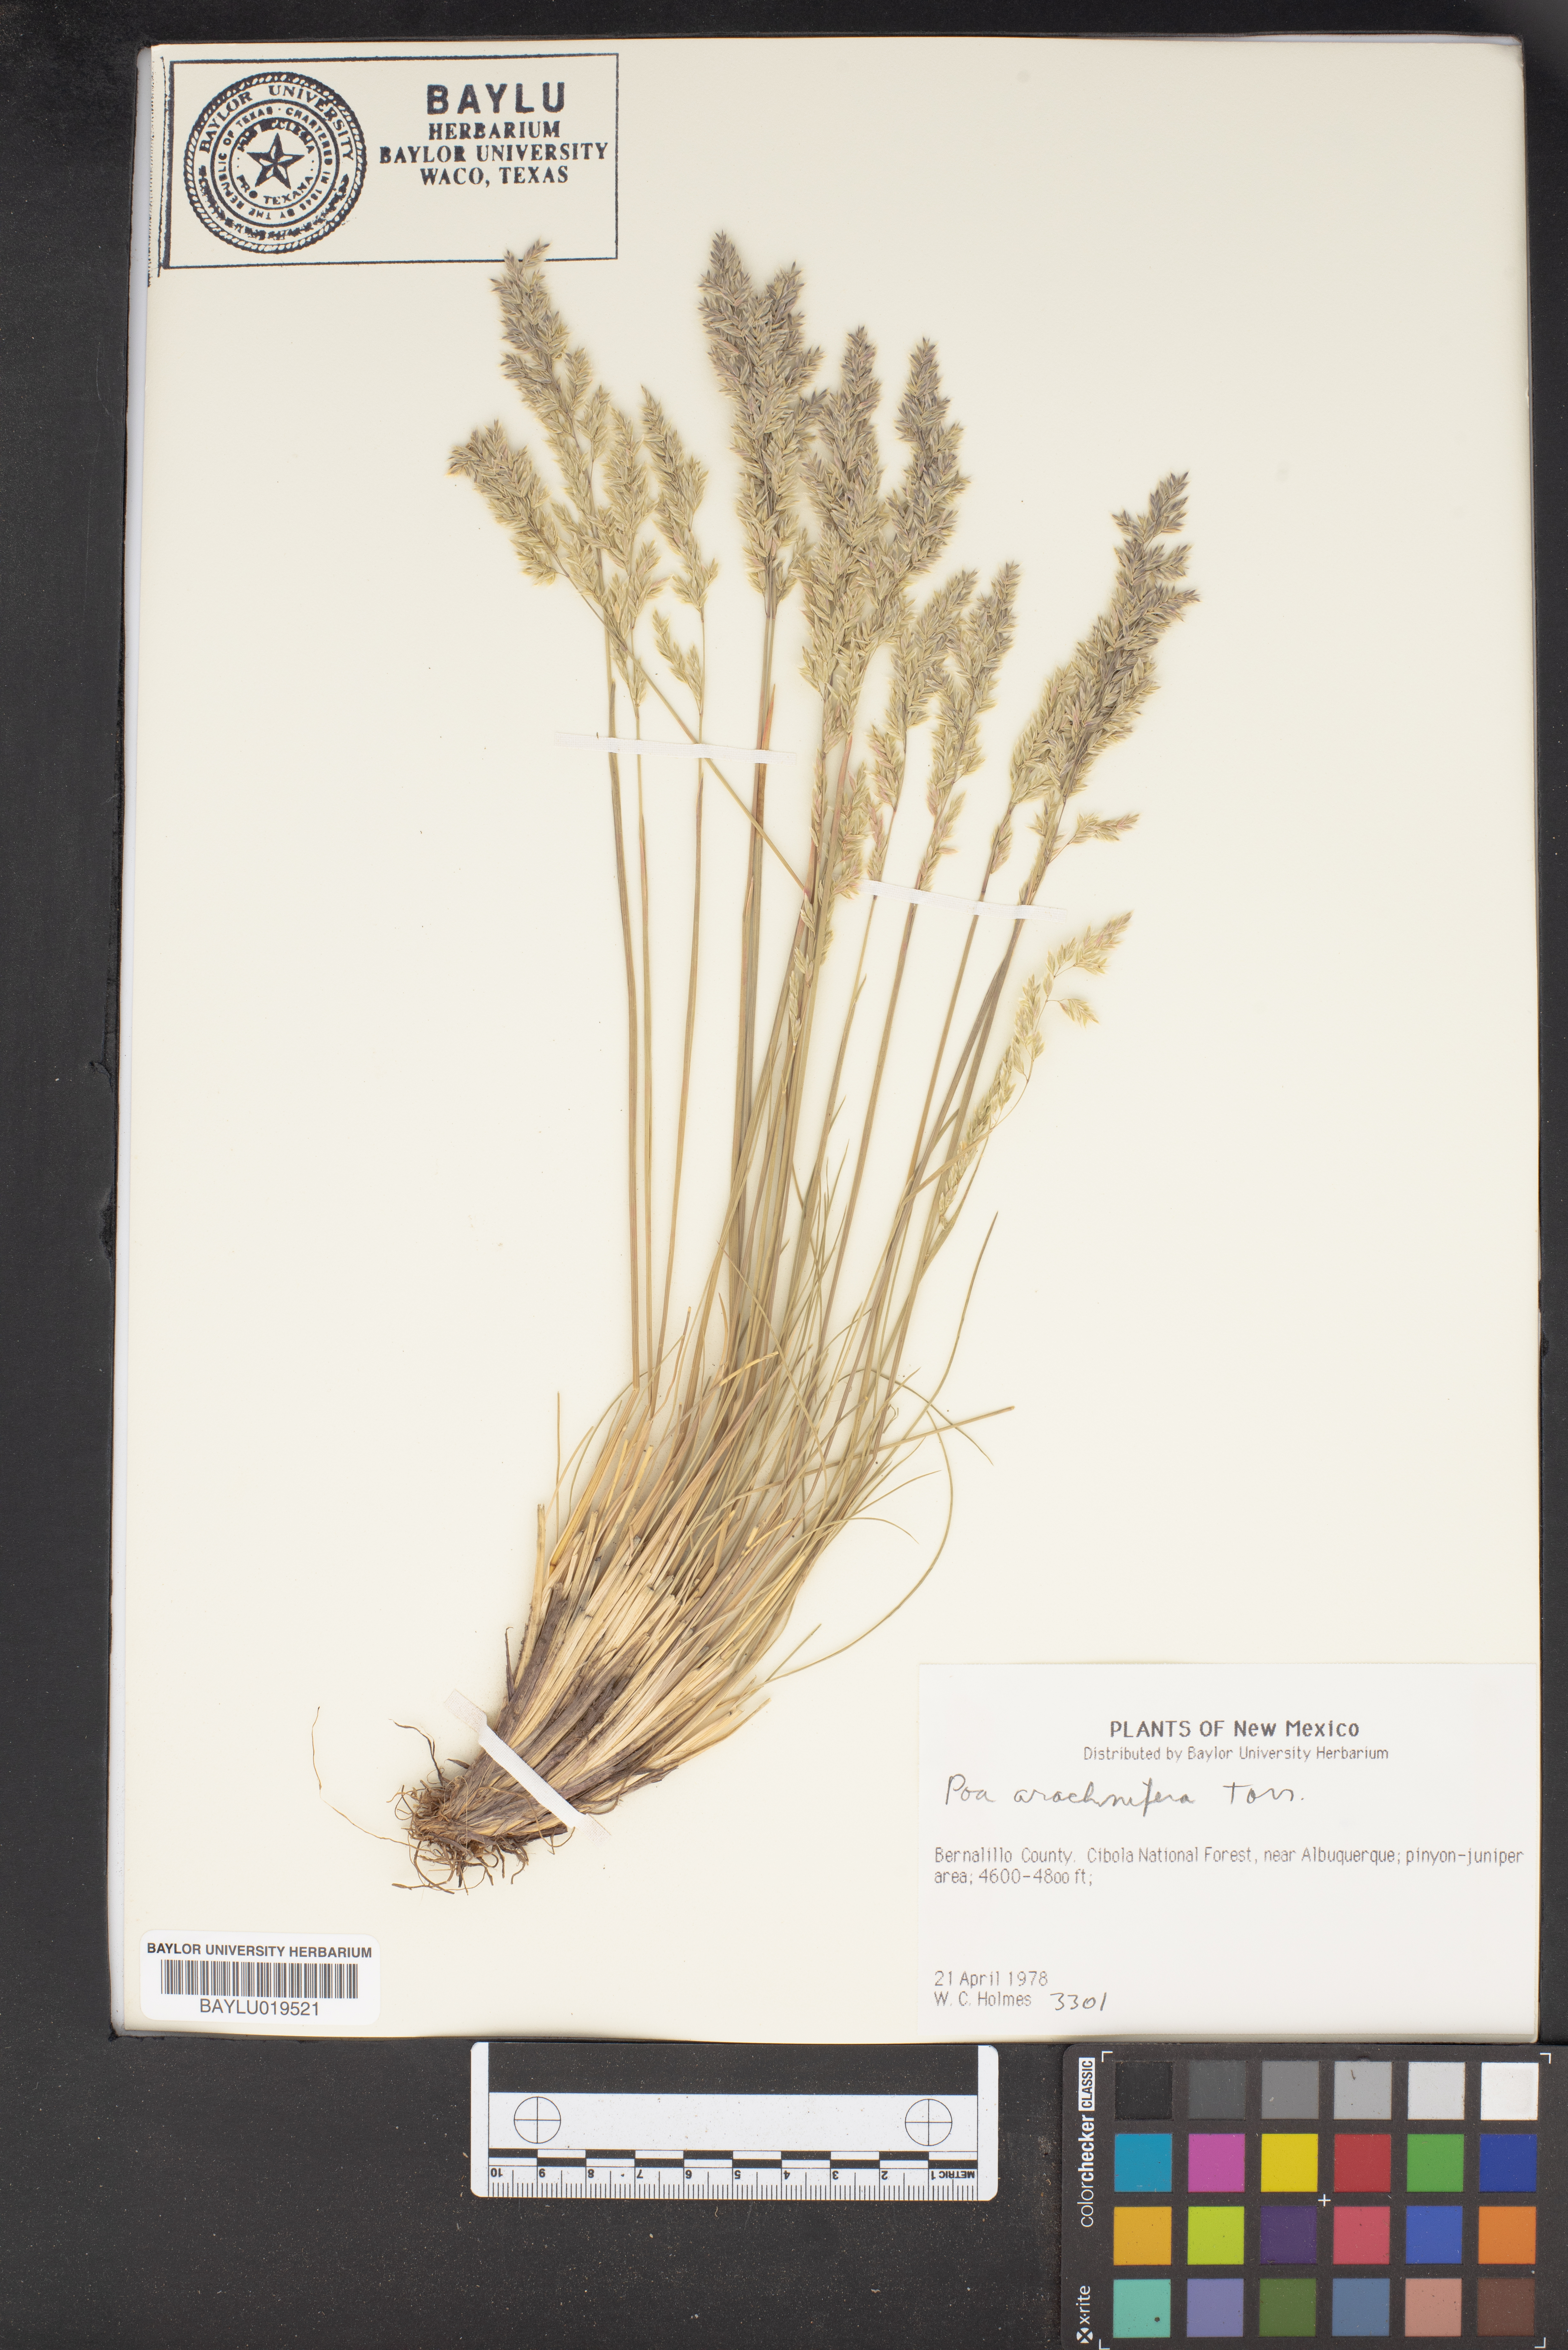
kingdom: Plantae
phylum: Tracheophyta
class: Liliopsida
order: Poales
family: Poaceae
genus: Poa
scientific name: Poa arachnifera
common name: Texas bluegrass
